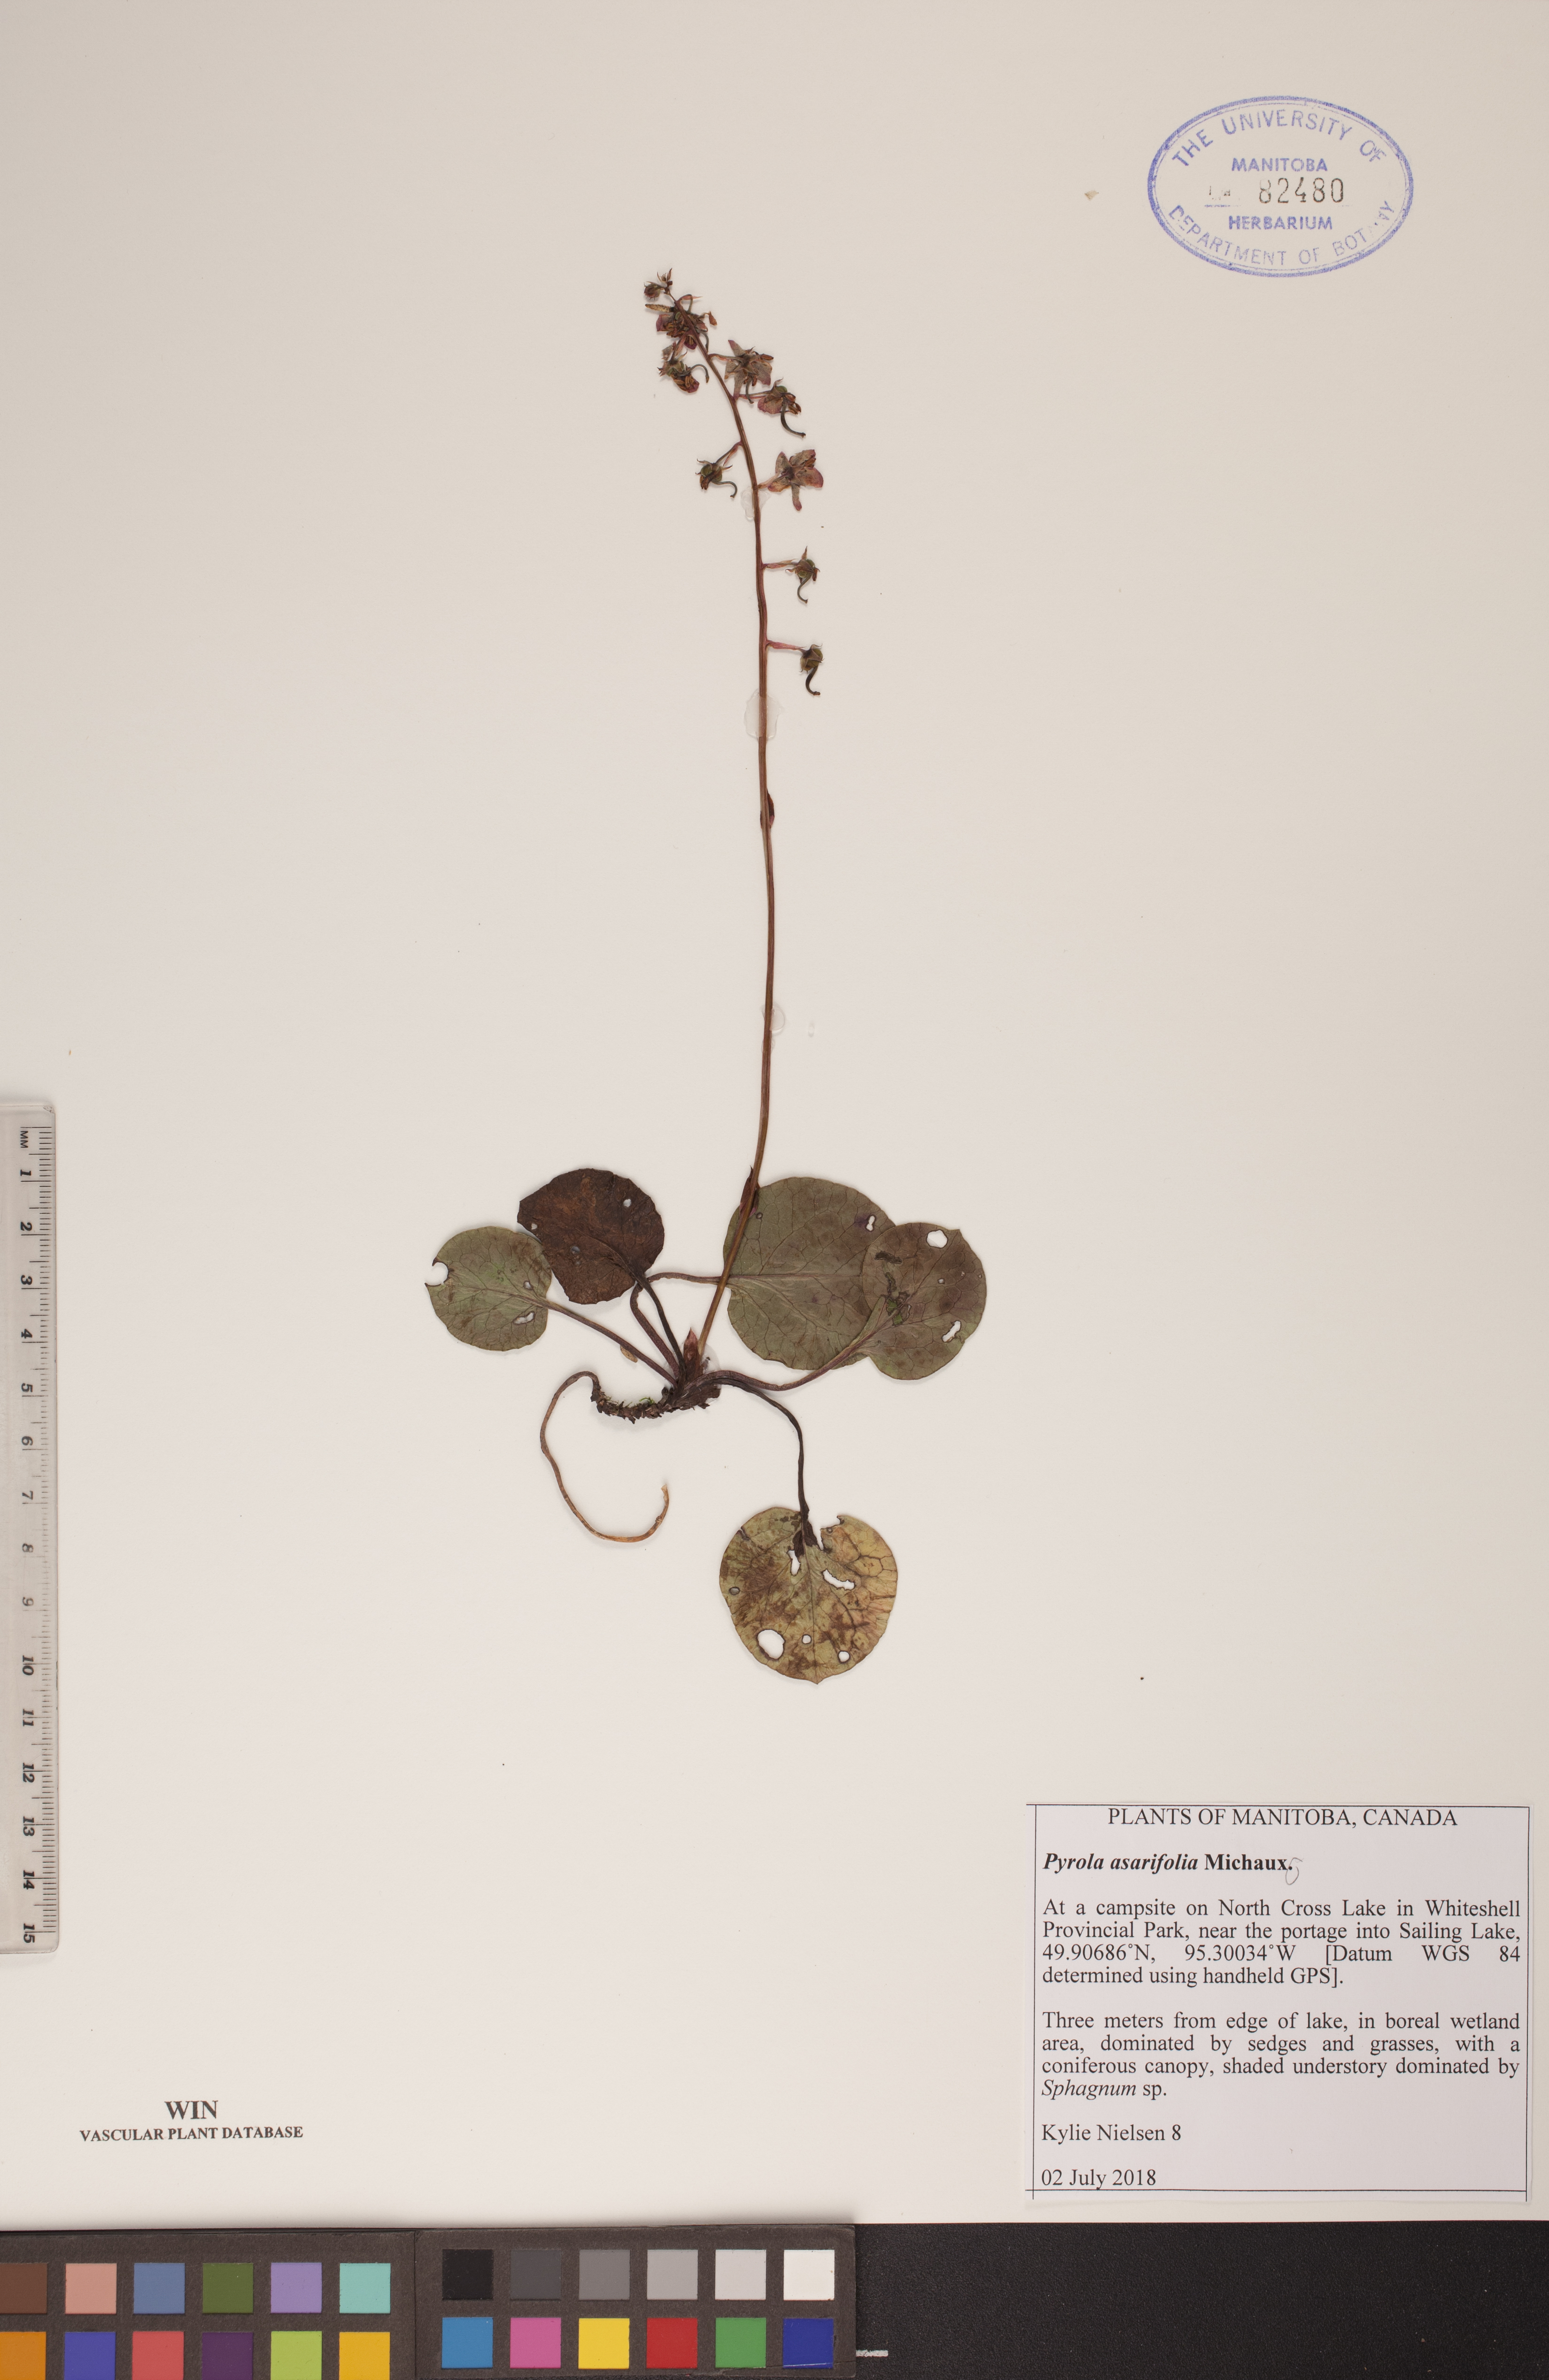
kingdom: Plantae
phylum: Tracheophyta
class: Magnoliopsida
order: Ericales
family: Ericaceae
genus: Pyrola
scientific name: Pyrola asarifolia
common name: Bog wintergreen
